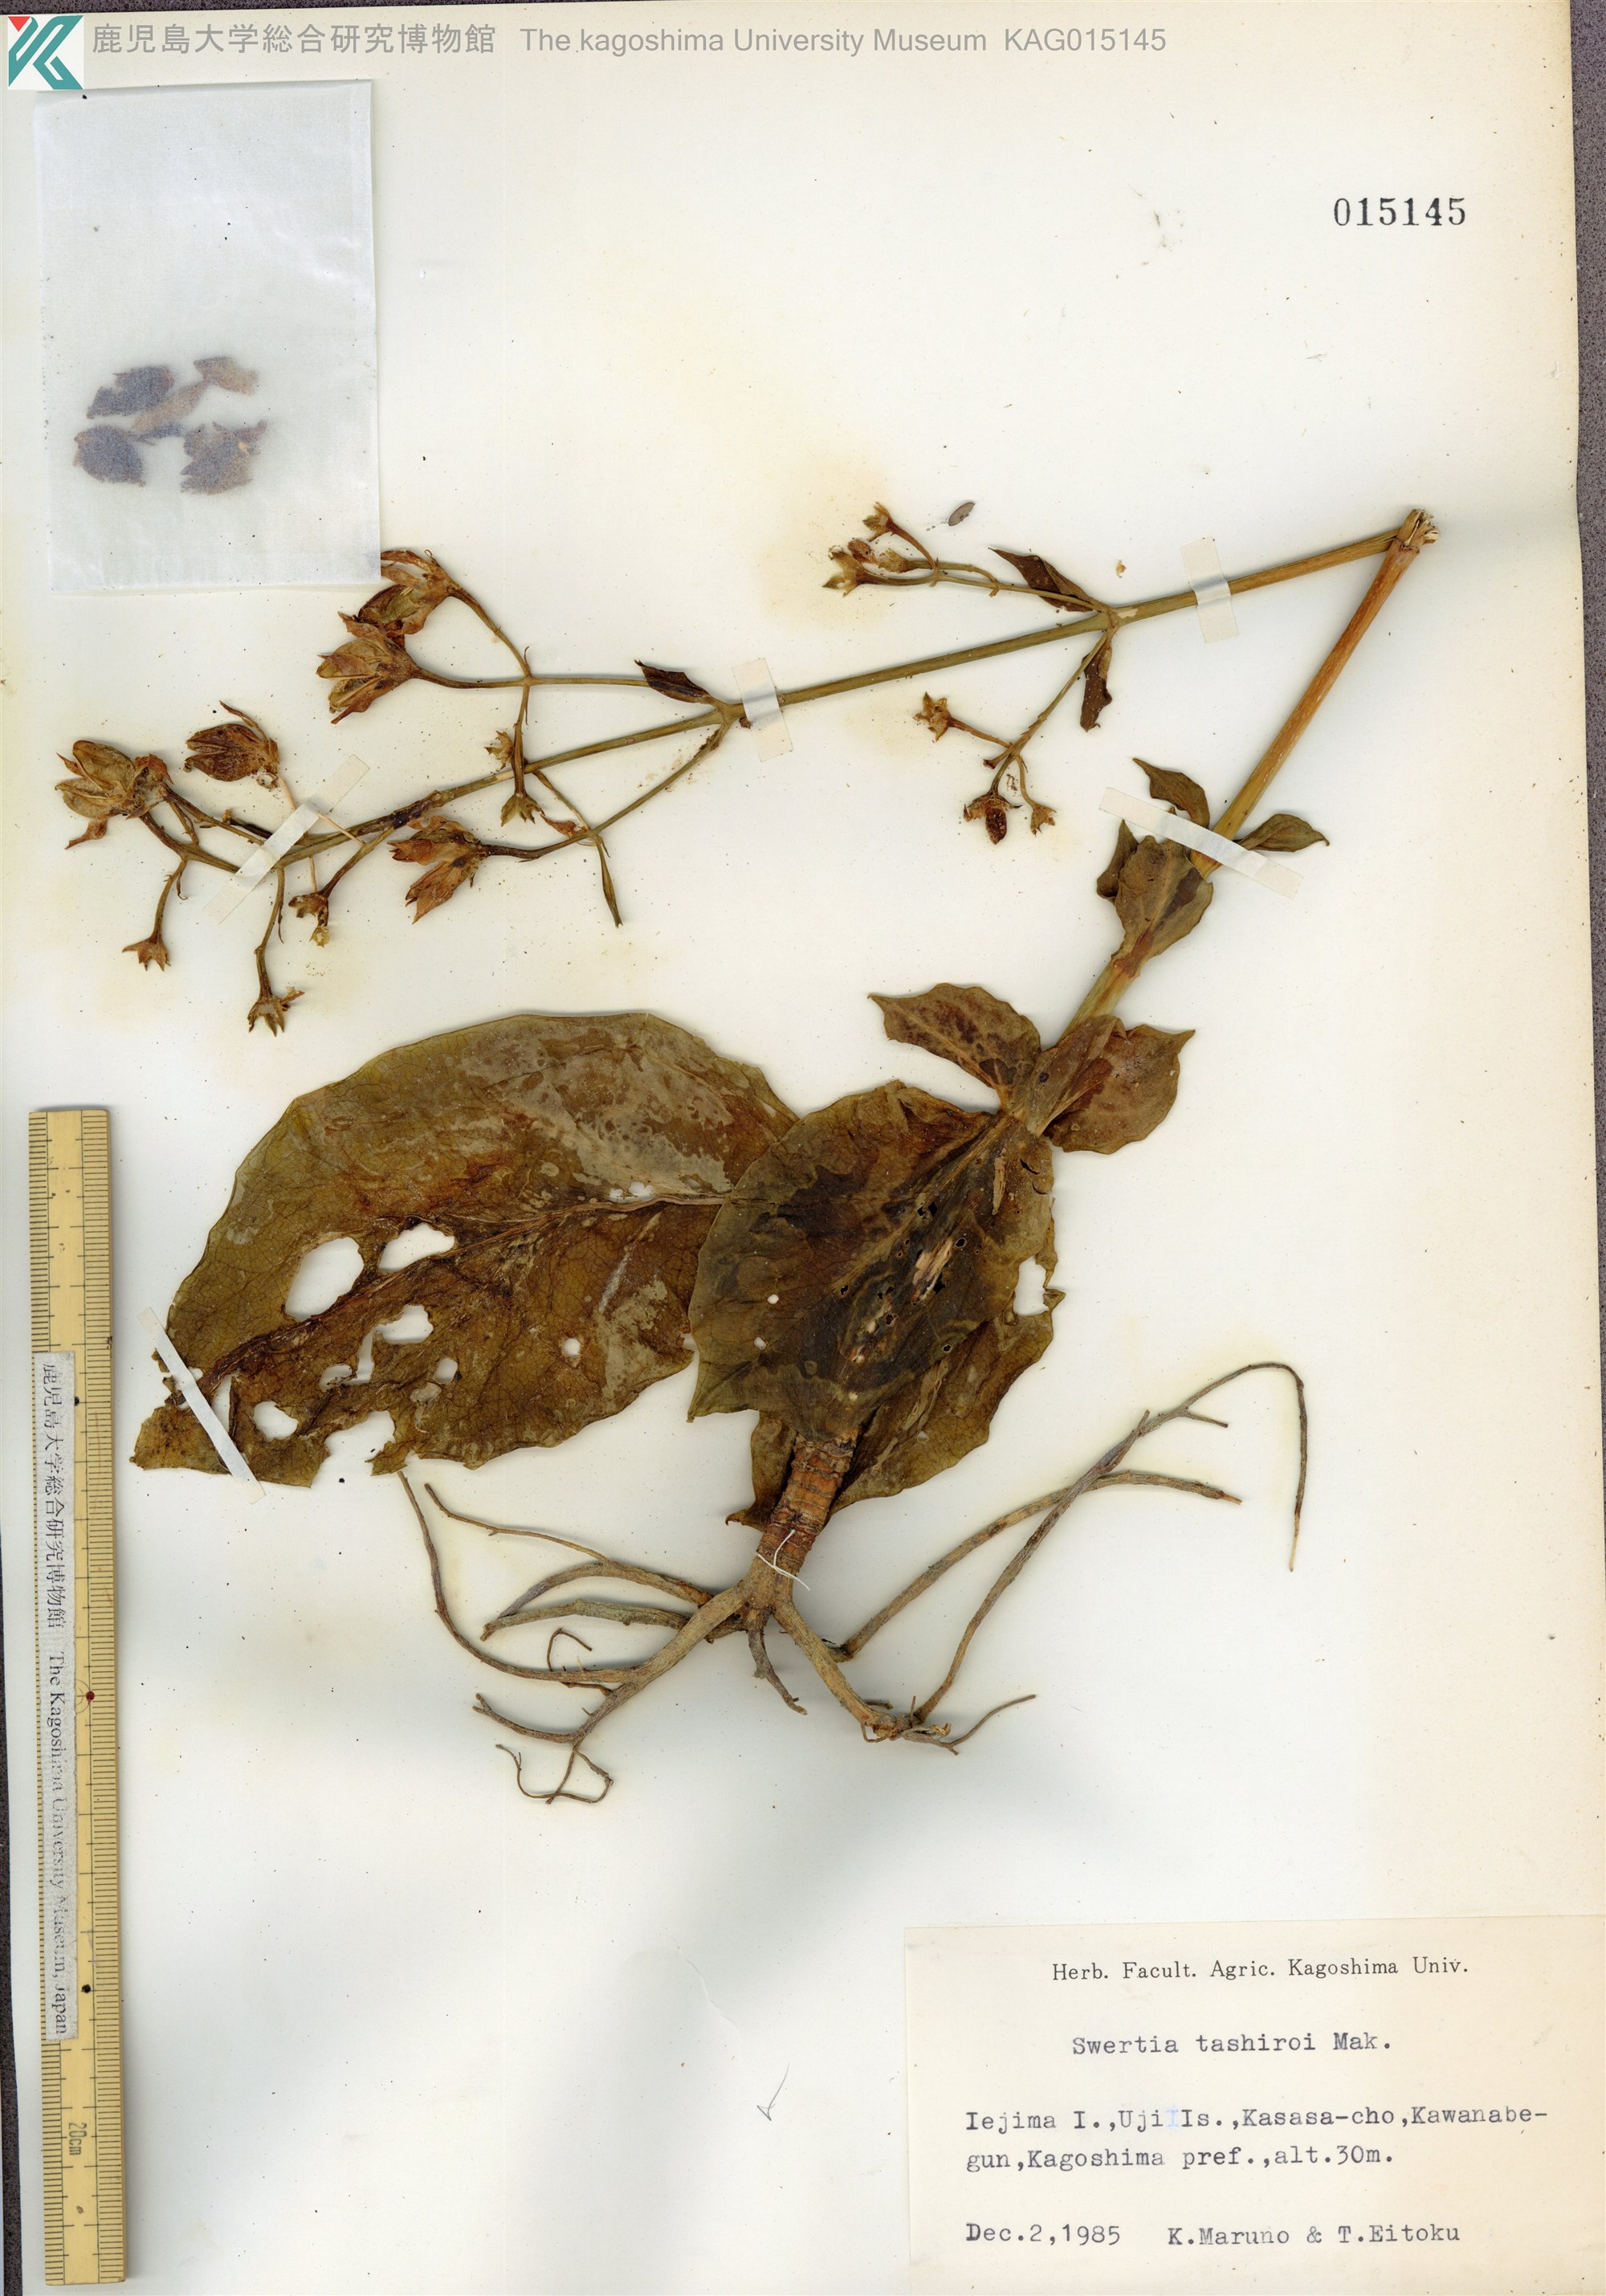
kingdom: Plantae
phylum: Tracheophyta
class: Magnoliopsida
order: Gentianales
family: Gentianaceae
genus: Swertia
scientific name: Swertia tashiroi
